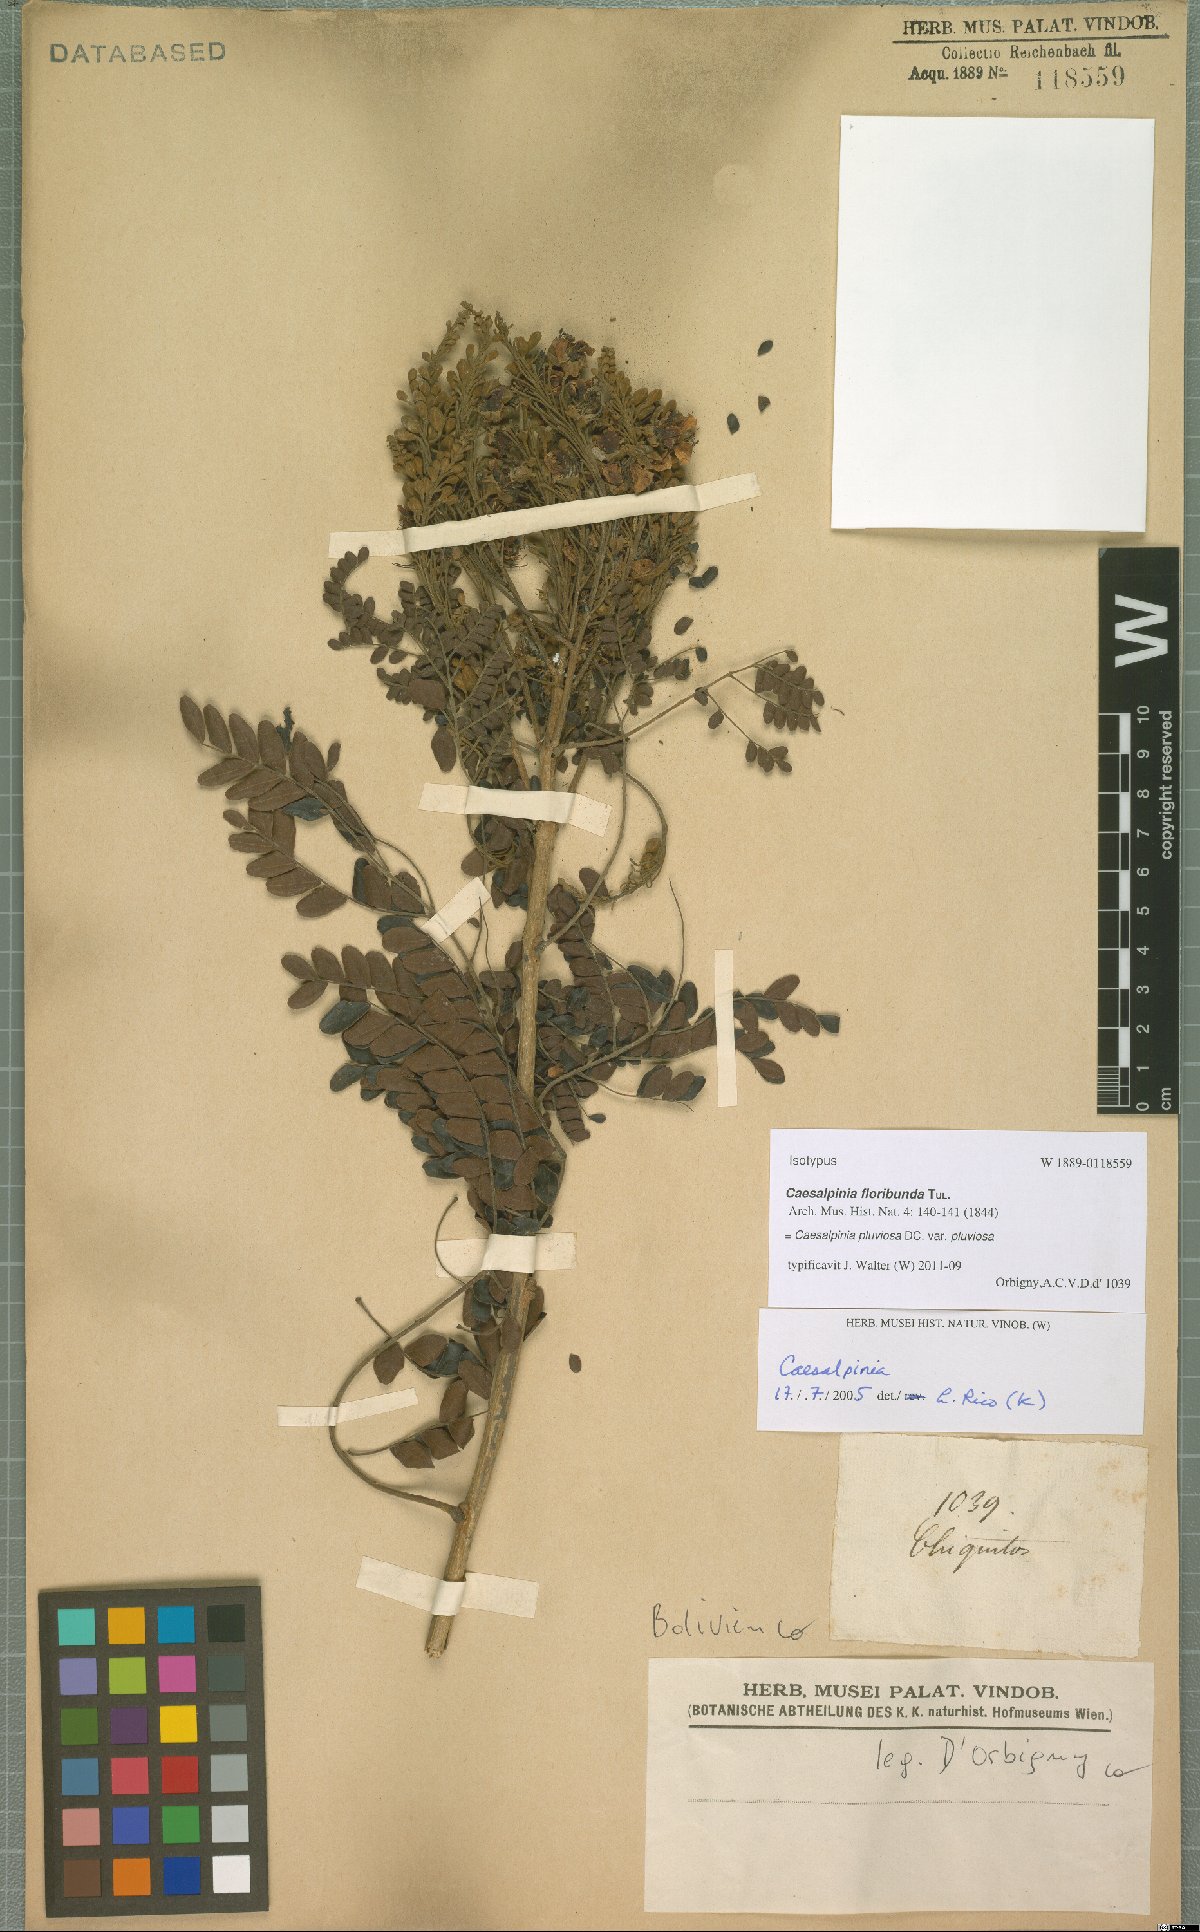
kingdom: Plantae
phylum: Tracheophyta
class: Magnoliopsida
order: Fabales
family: Fabaceae
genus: Cenostigma
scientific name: Cenostigma pluviosum
